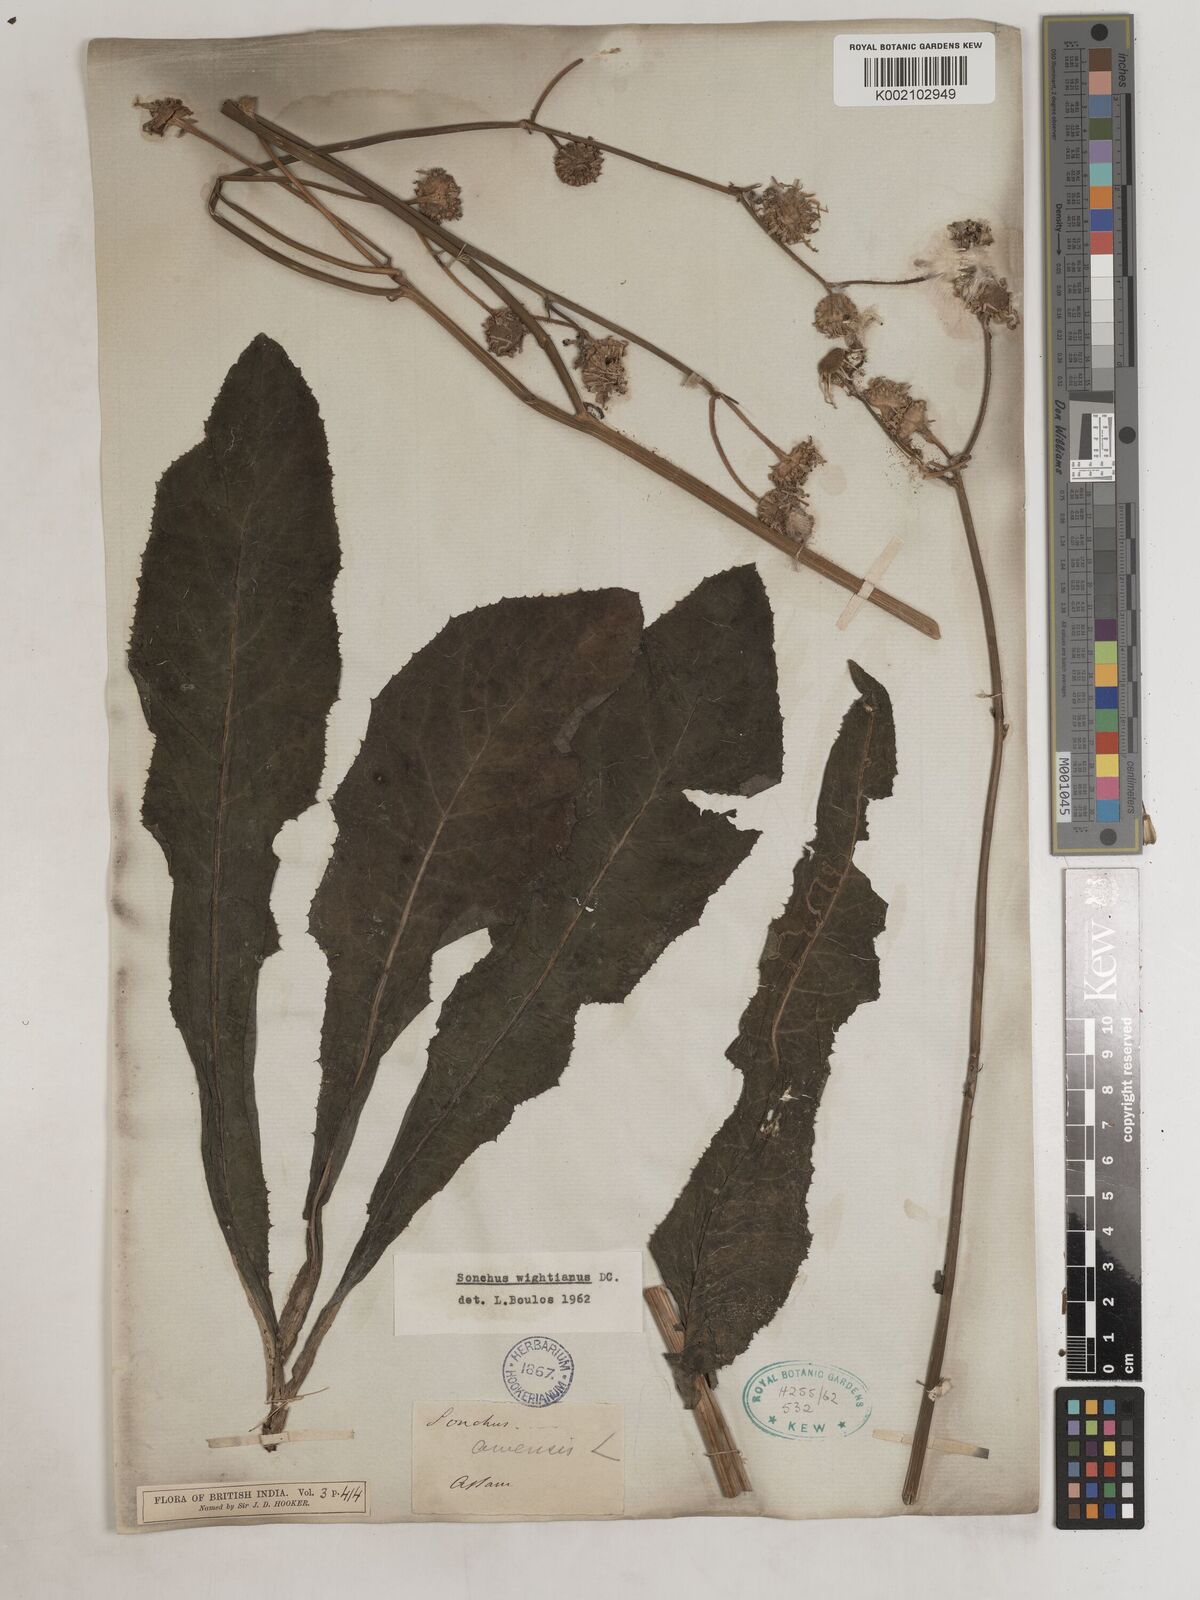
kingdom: Plantae
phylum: Tracheophyta
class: Magnoliopsida
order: Asterales
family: Asteraceae
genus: Sonchus
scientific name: Sonchus arvensis
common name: Perennial sow-thistle
